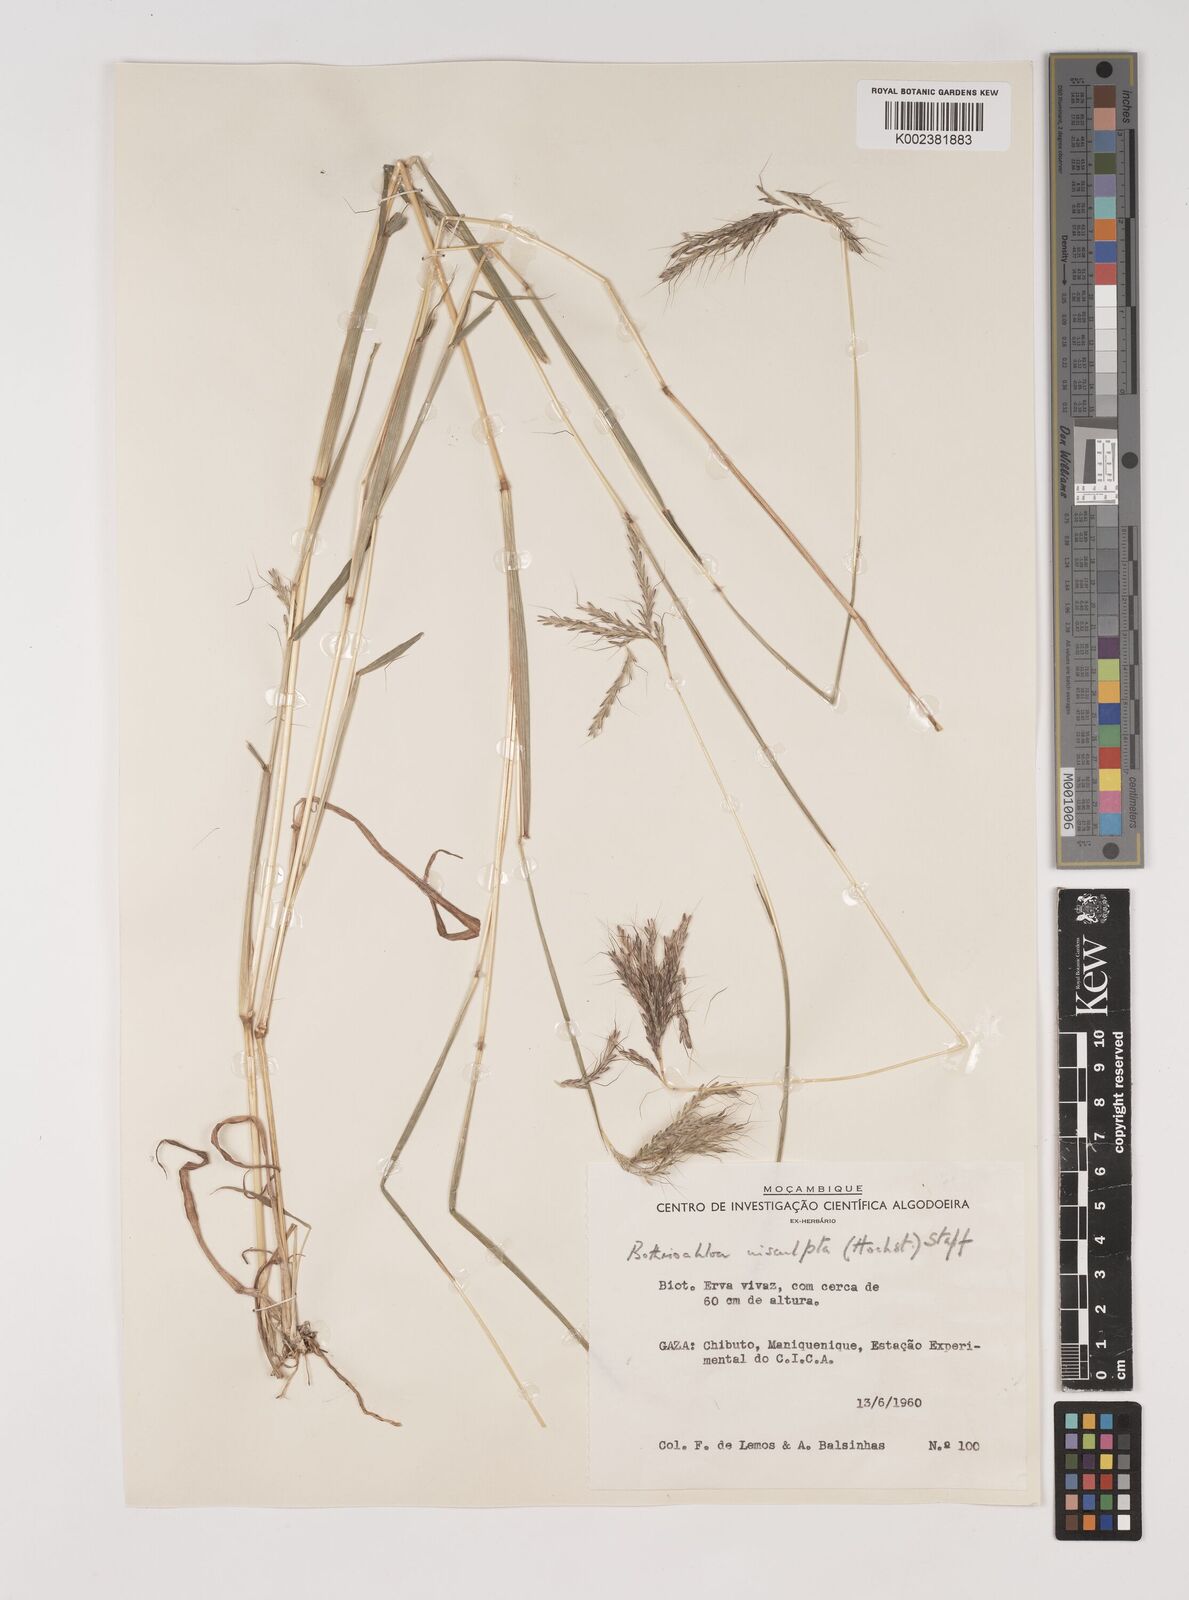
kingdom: Plantae
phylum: Tracheophyta
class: Liliopsida
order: Poales
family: Poaceae
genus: Bothriochloa
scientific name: Bothriochloa insculpta
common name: Creeping-bluegrass
